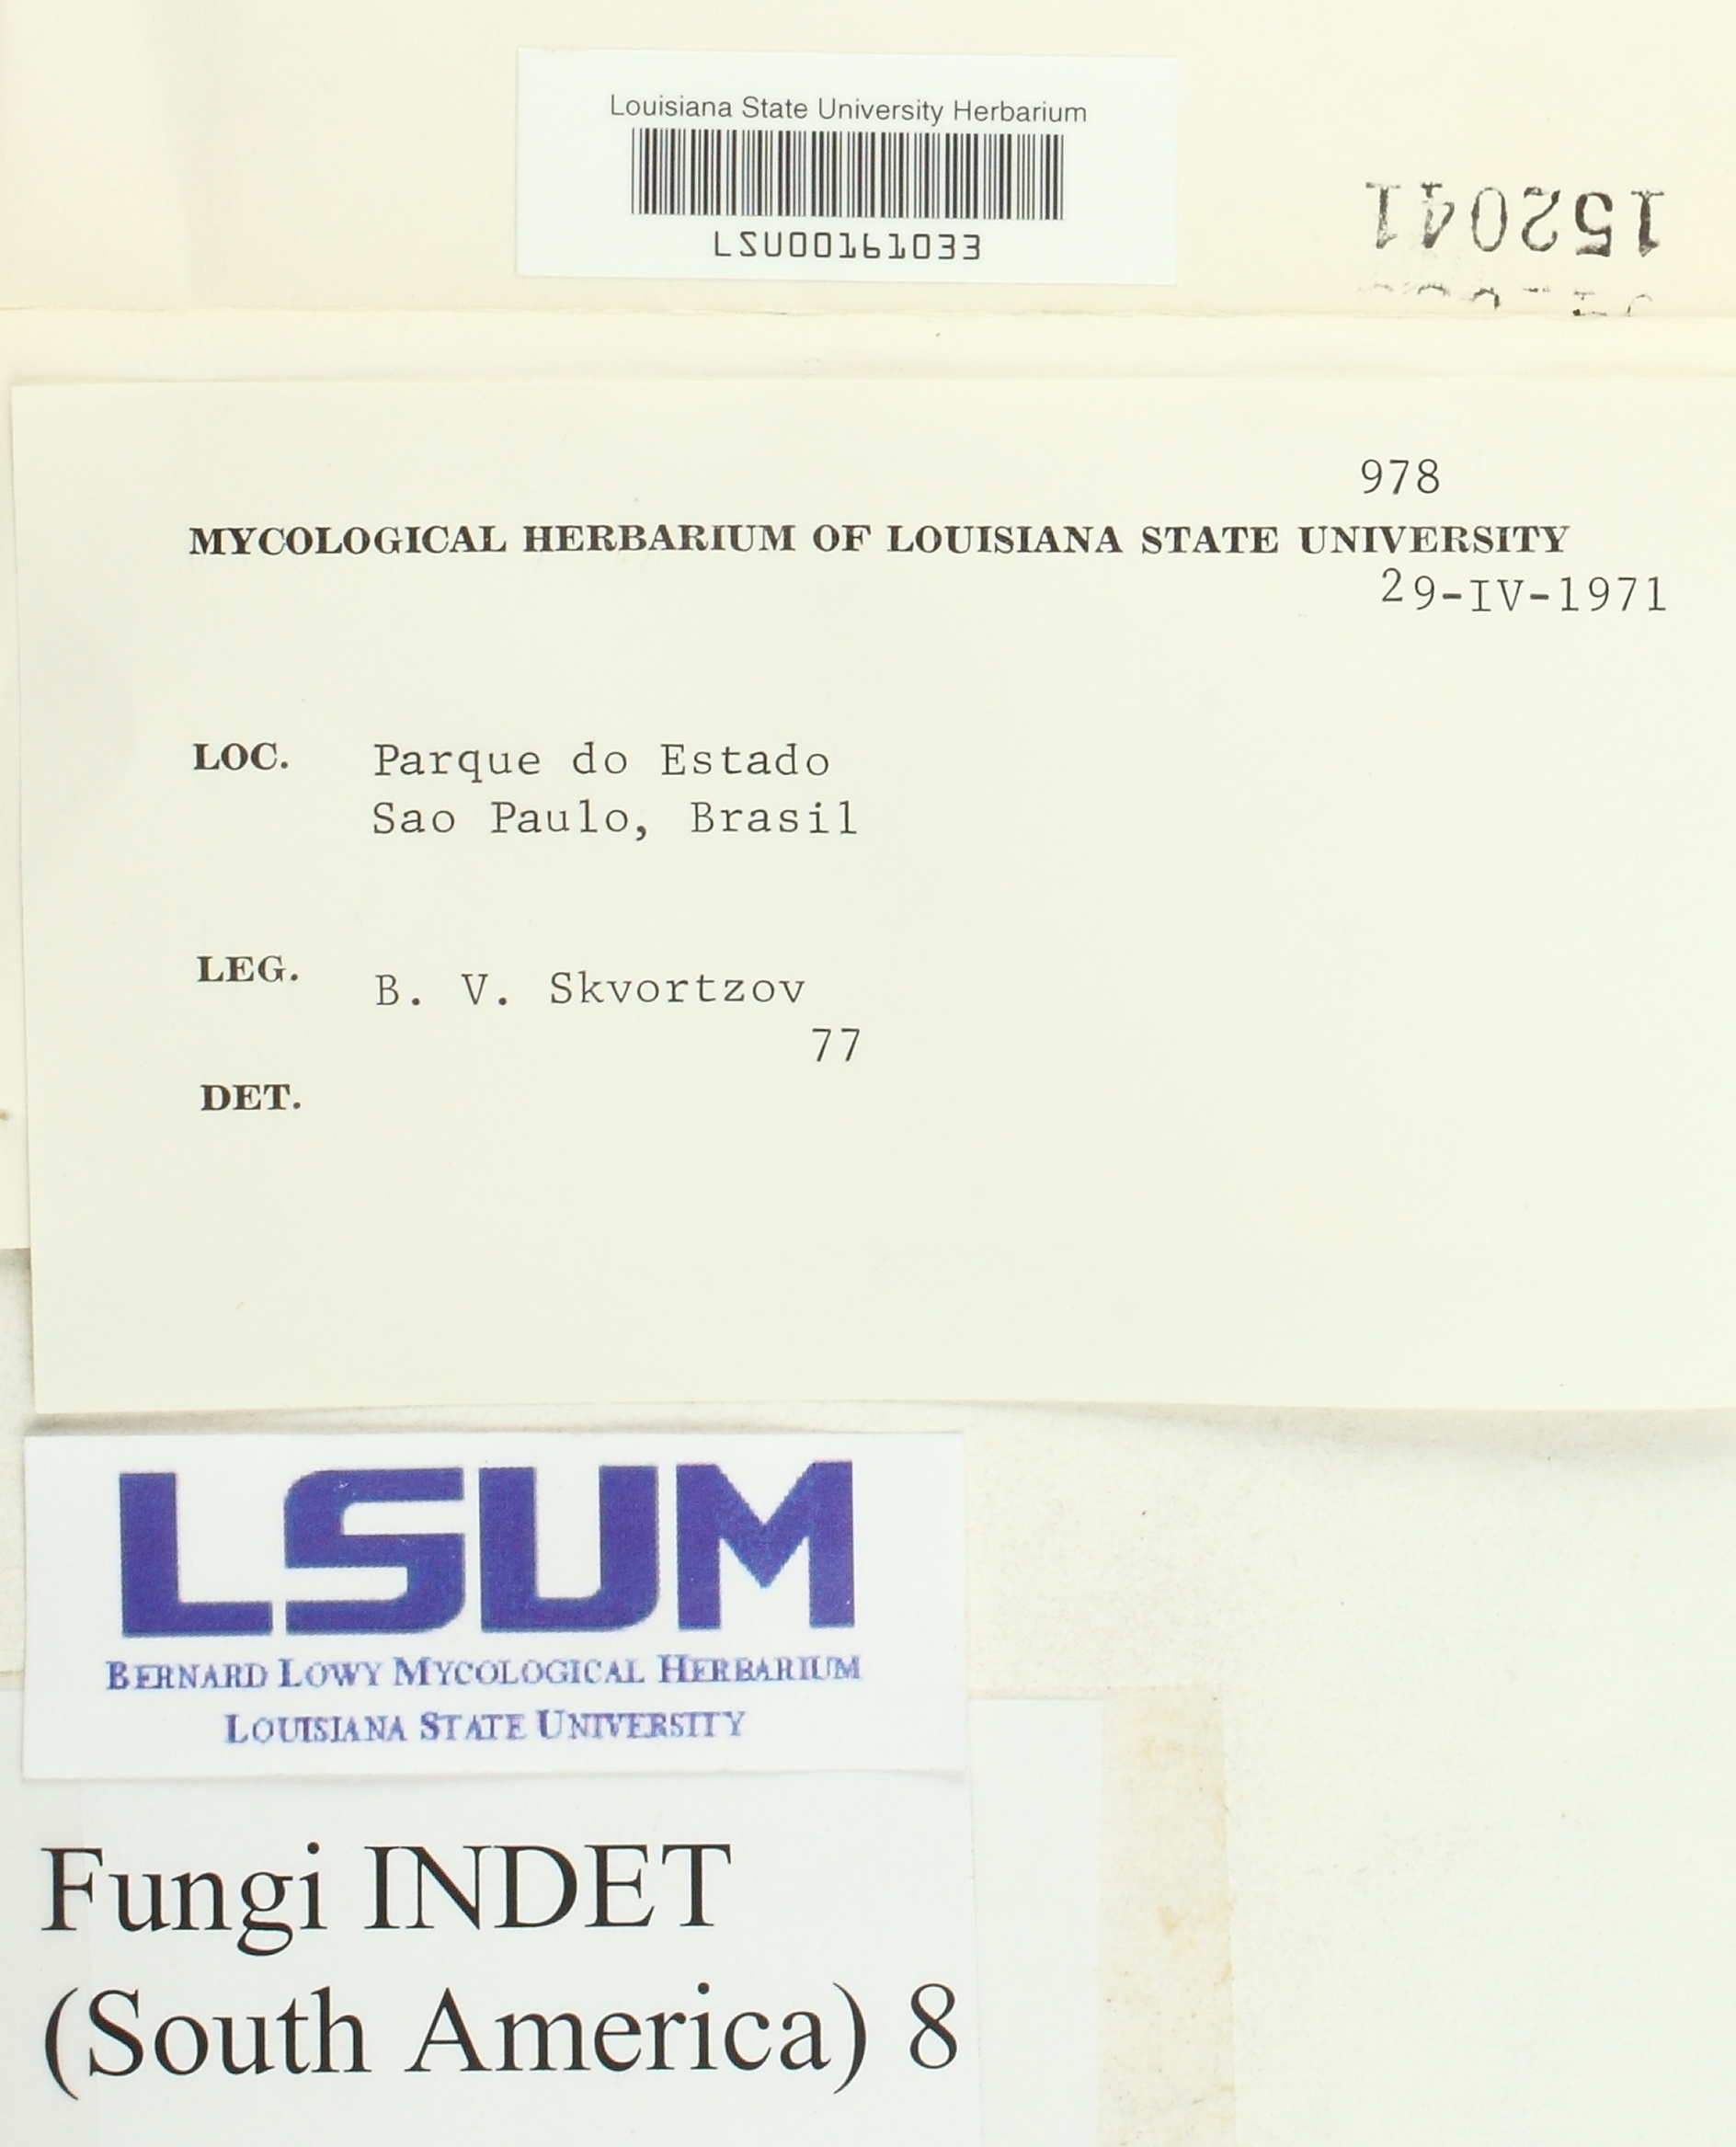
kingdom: Fungi
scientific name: Fungi
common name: Fungi
